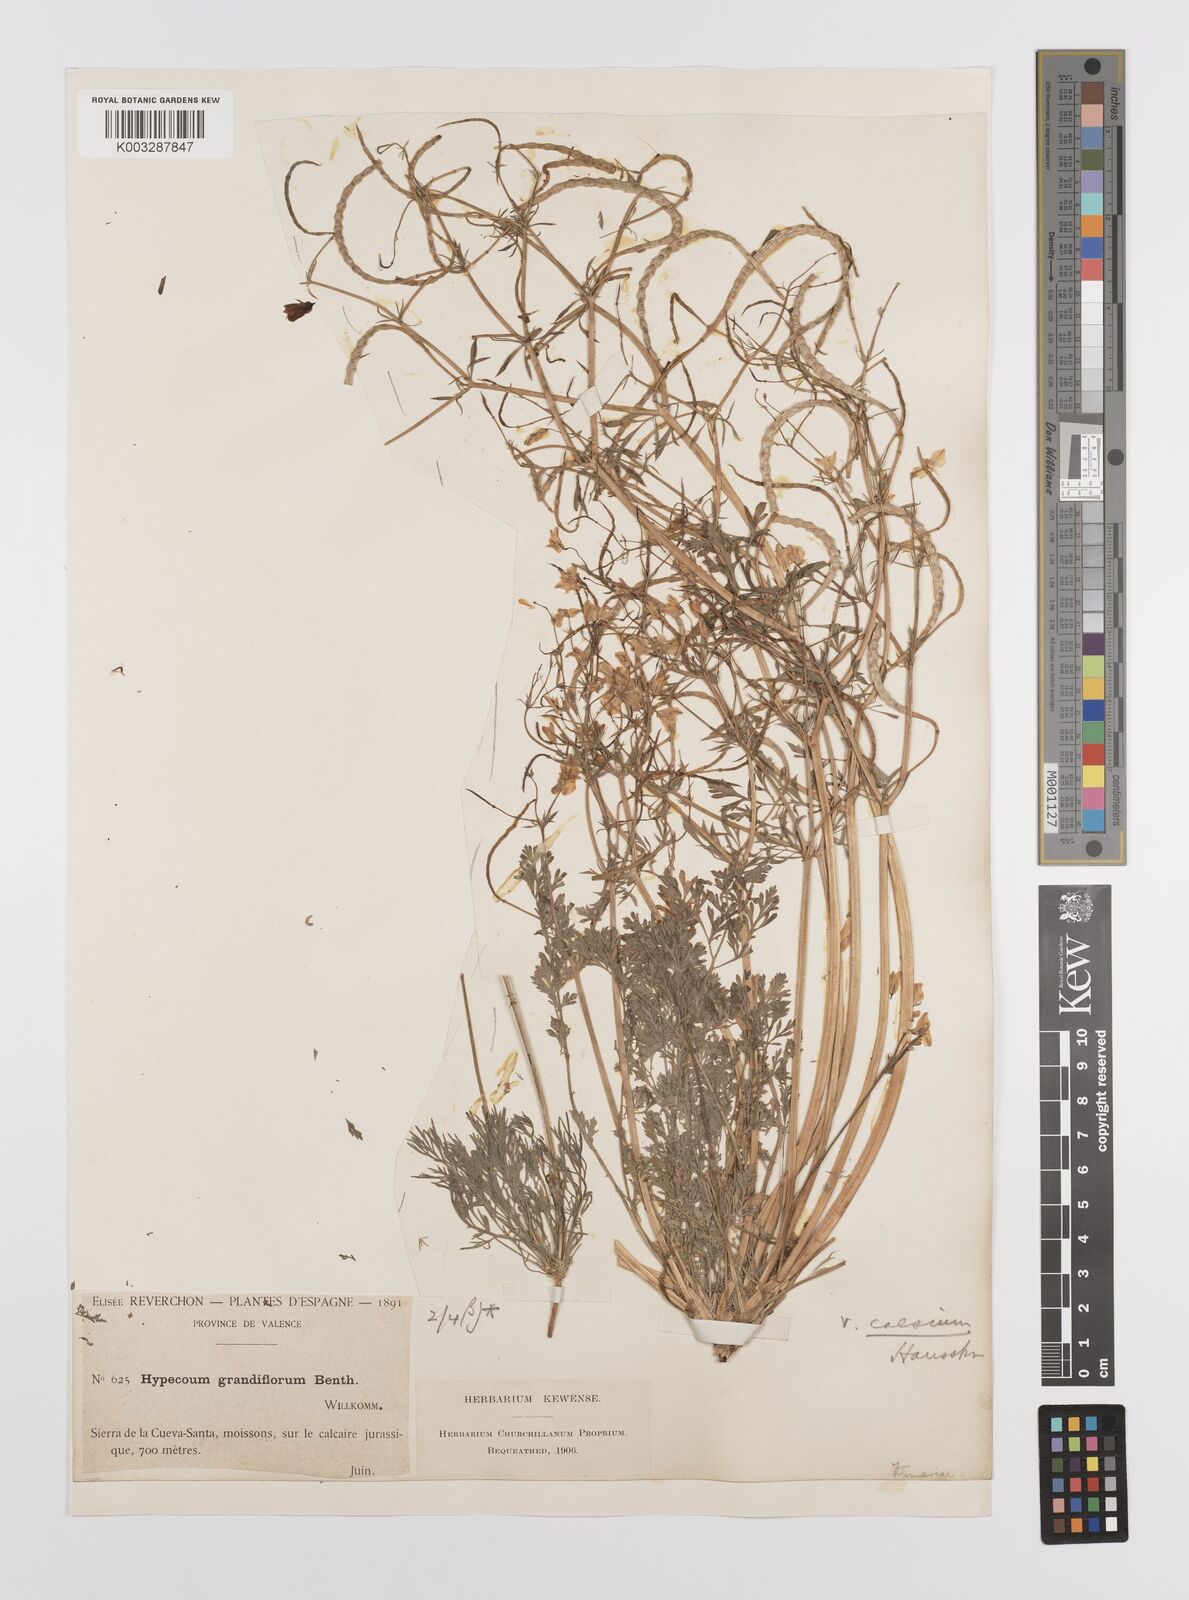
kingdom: Plantae
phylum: Tracheophyta
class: Magnoliopsida
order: Ranunculales
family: Papaveraceae
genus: Hypecoum
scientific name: Hypecoum imberbe
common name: Sicklefruit hypecoum
